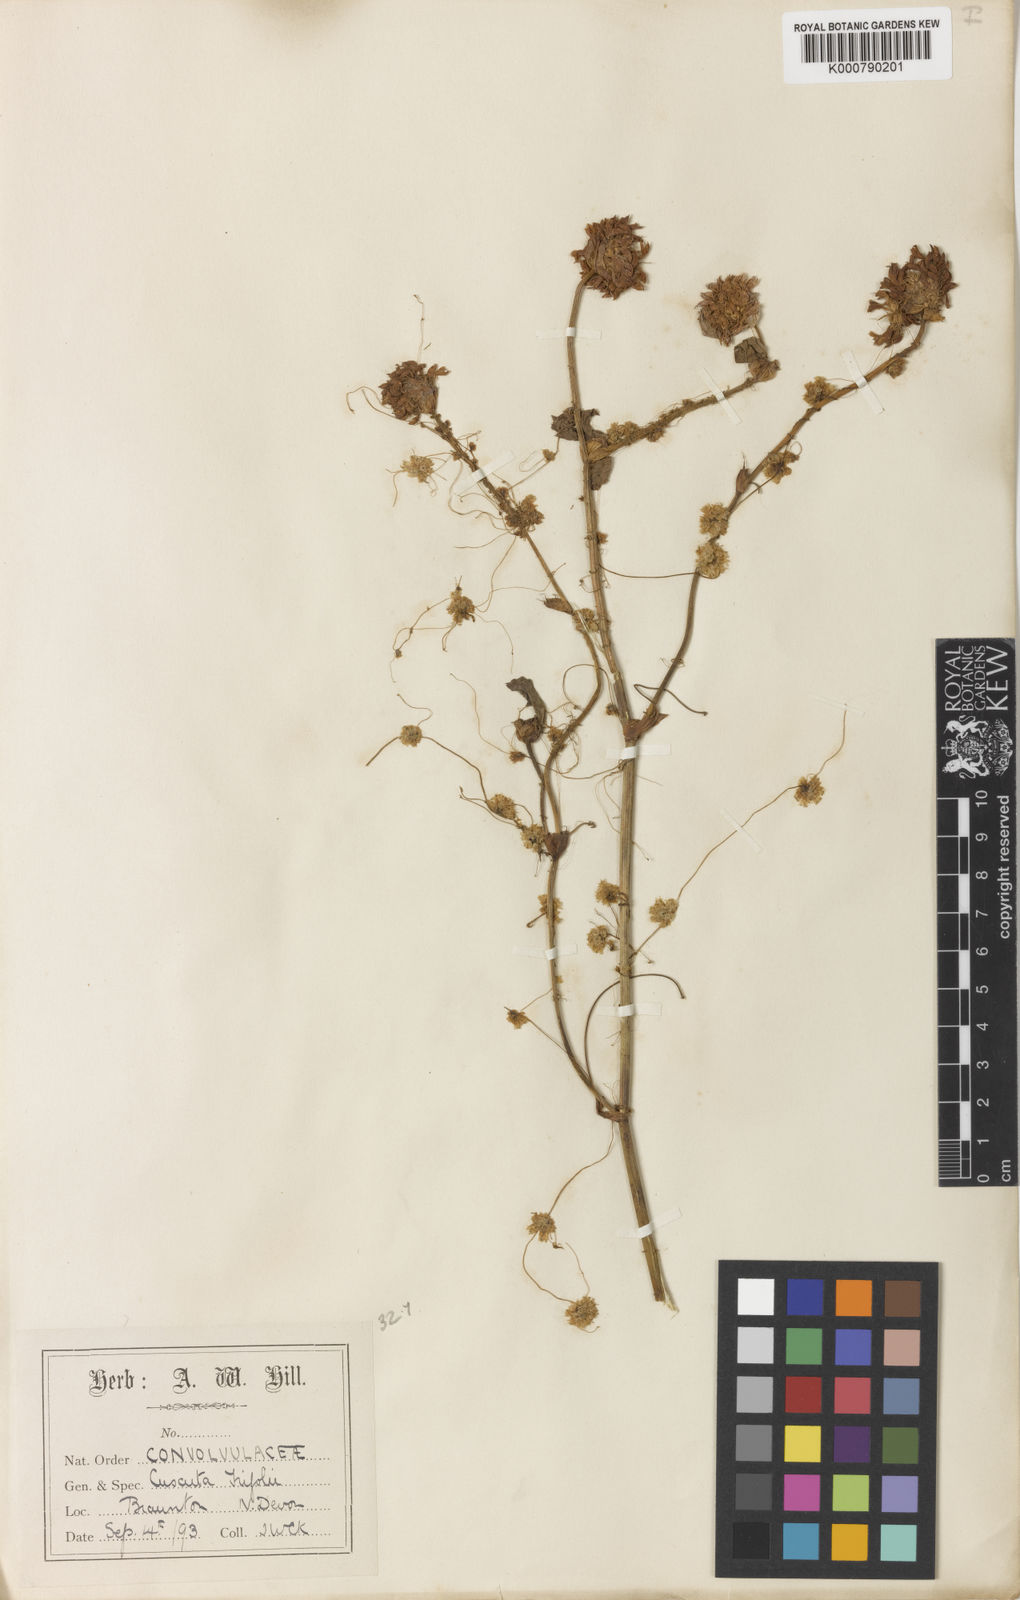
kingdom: Plantae
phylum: Tracheophyta
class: Magnoliopsida
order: Solanales
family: Convolvulaceae
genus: Cuscuta
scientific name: Cuscuta epithymum
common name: Clover dodder
